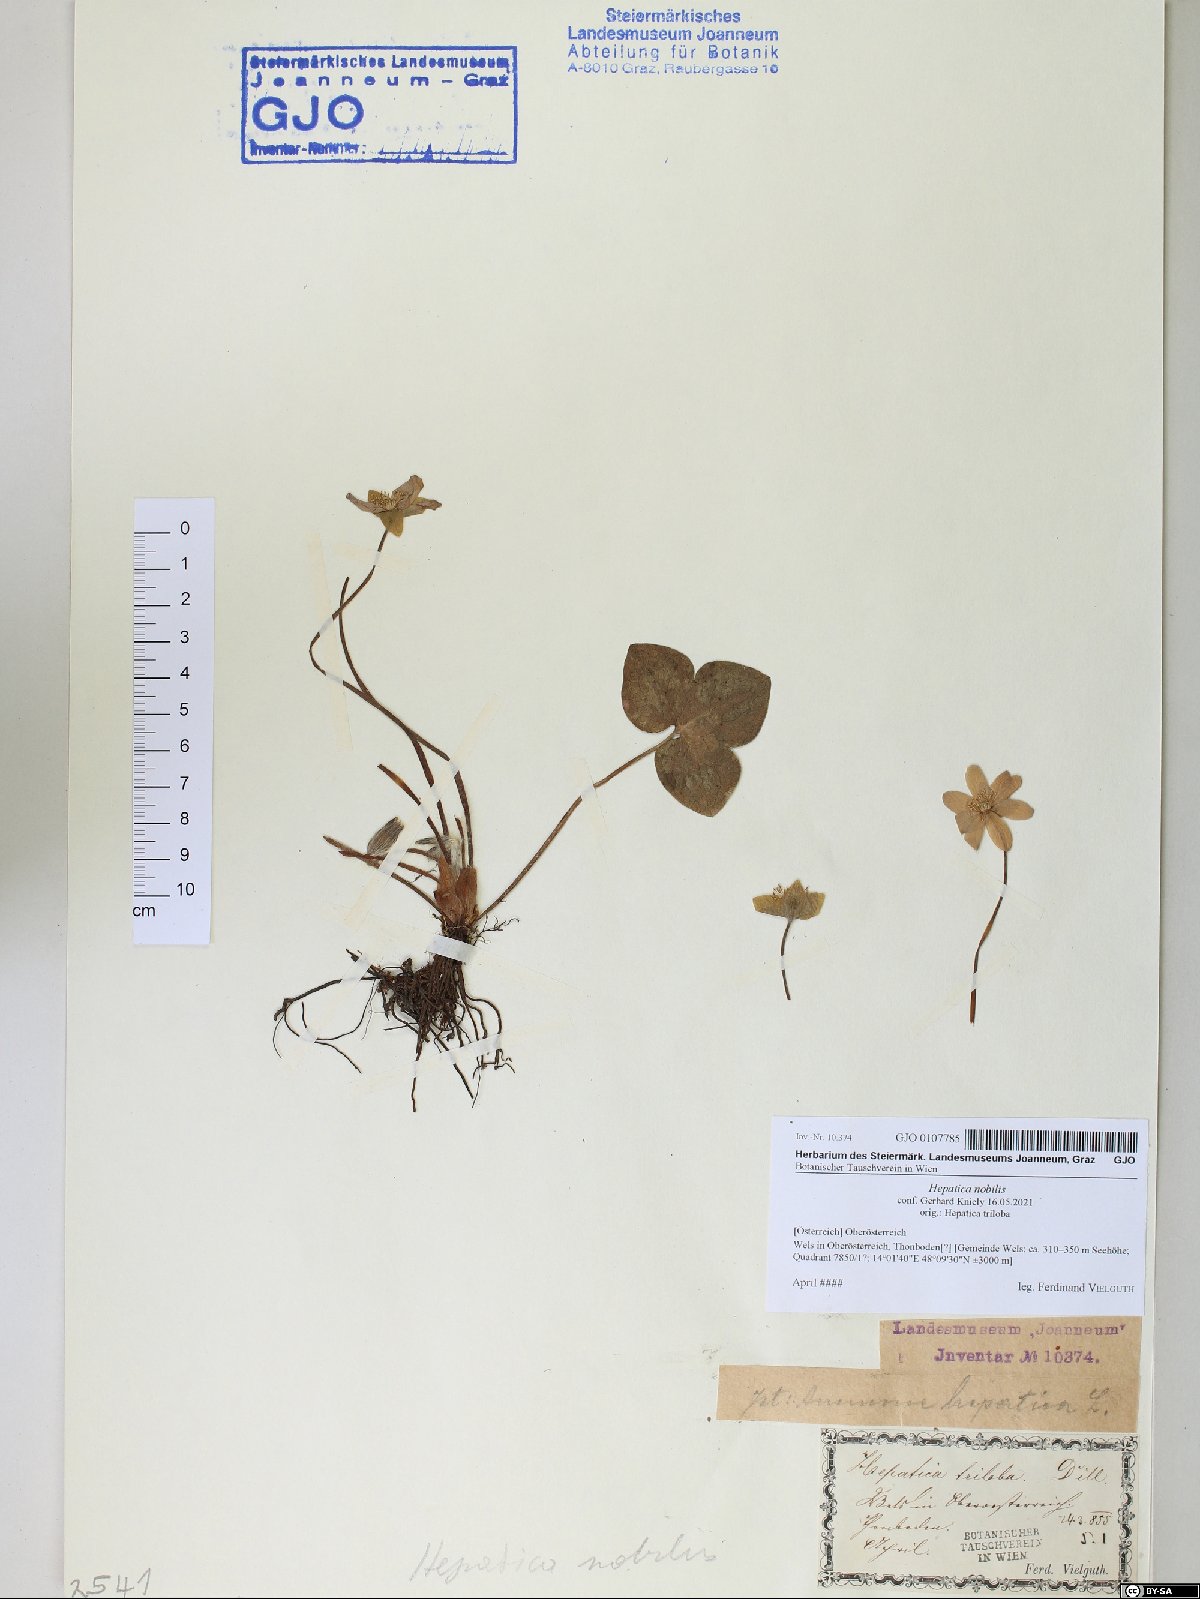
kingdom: Plantae
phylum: Tracheophyta
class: Magnoliopsida
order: Ranunculales
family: Ranunculaceae
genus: Hepatica
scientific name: Hepatica nobilis
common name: Liverleaf
